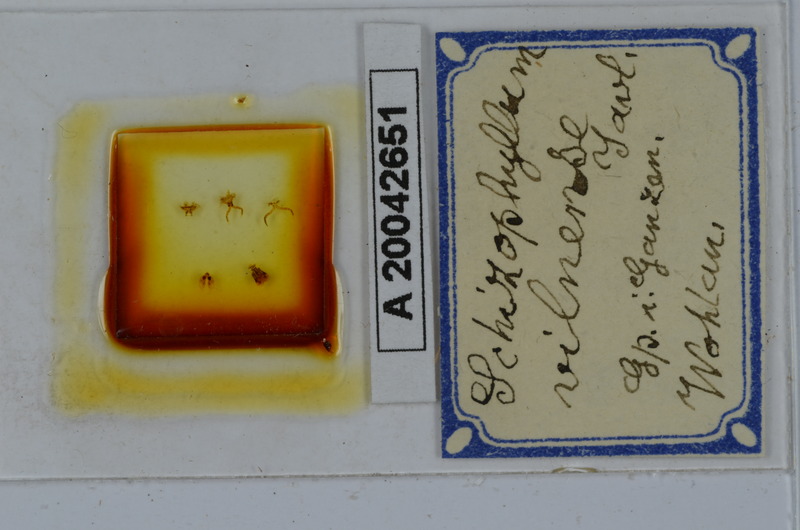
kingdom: Animalia
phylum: Arthropoda
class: Diplopoda
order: Julida
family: Julidae
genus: Rossiulus
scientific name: Rossiulus vilnensis
